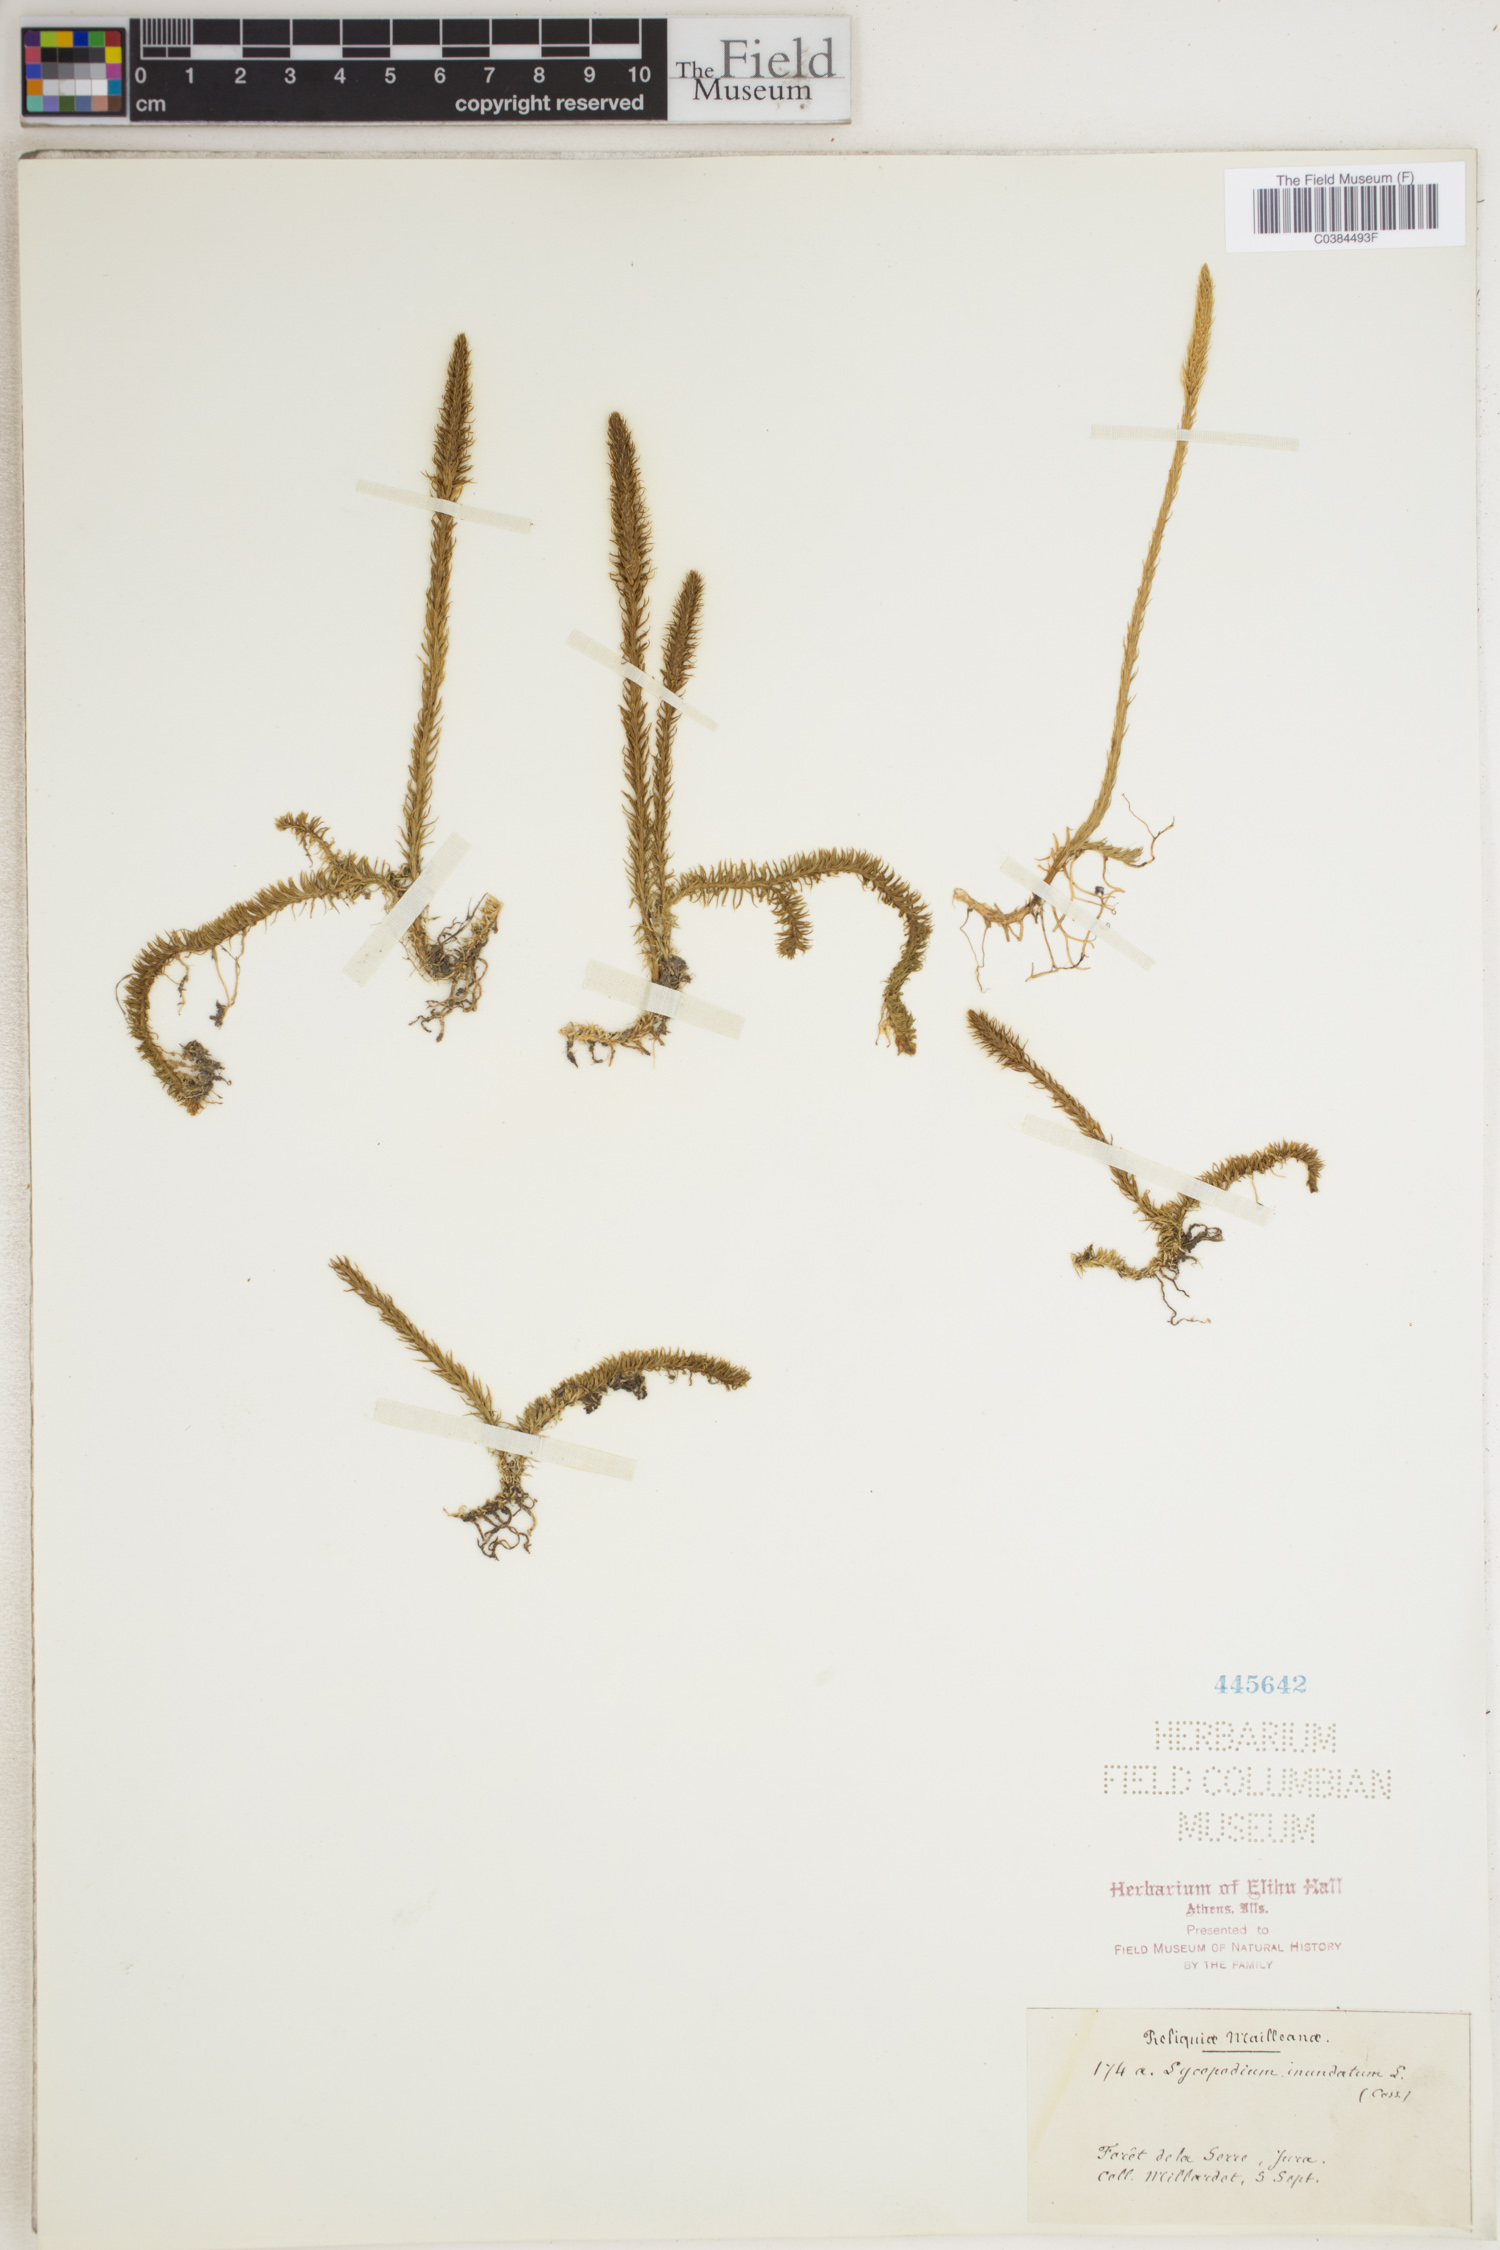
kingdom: Plantae
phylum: Tracheophyta
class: Lycopodiopsida
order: Lycopodiales
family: Lycopodiaceae
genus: Lycopodiella
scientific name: Lycopodiella inundata
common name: Marsh clubmoss
